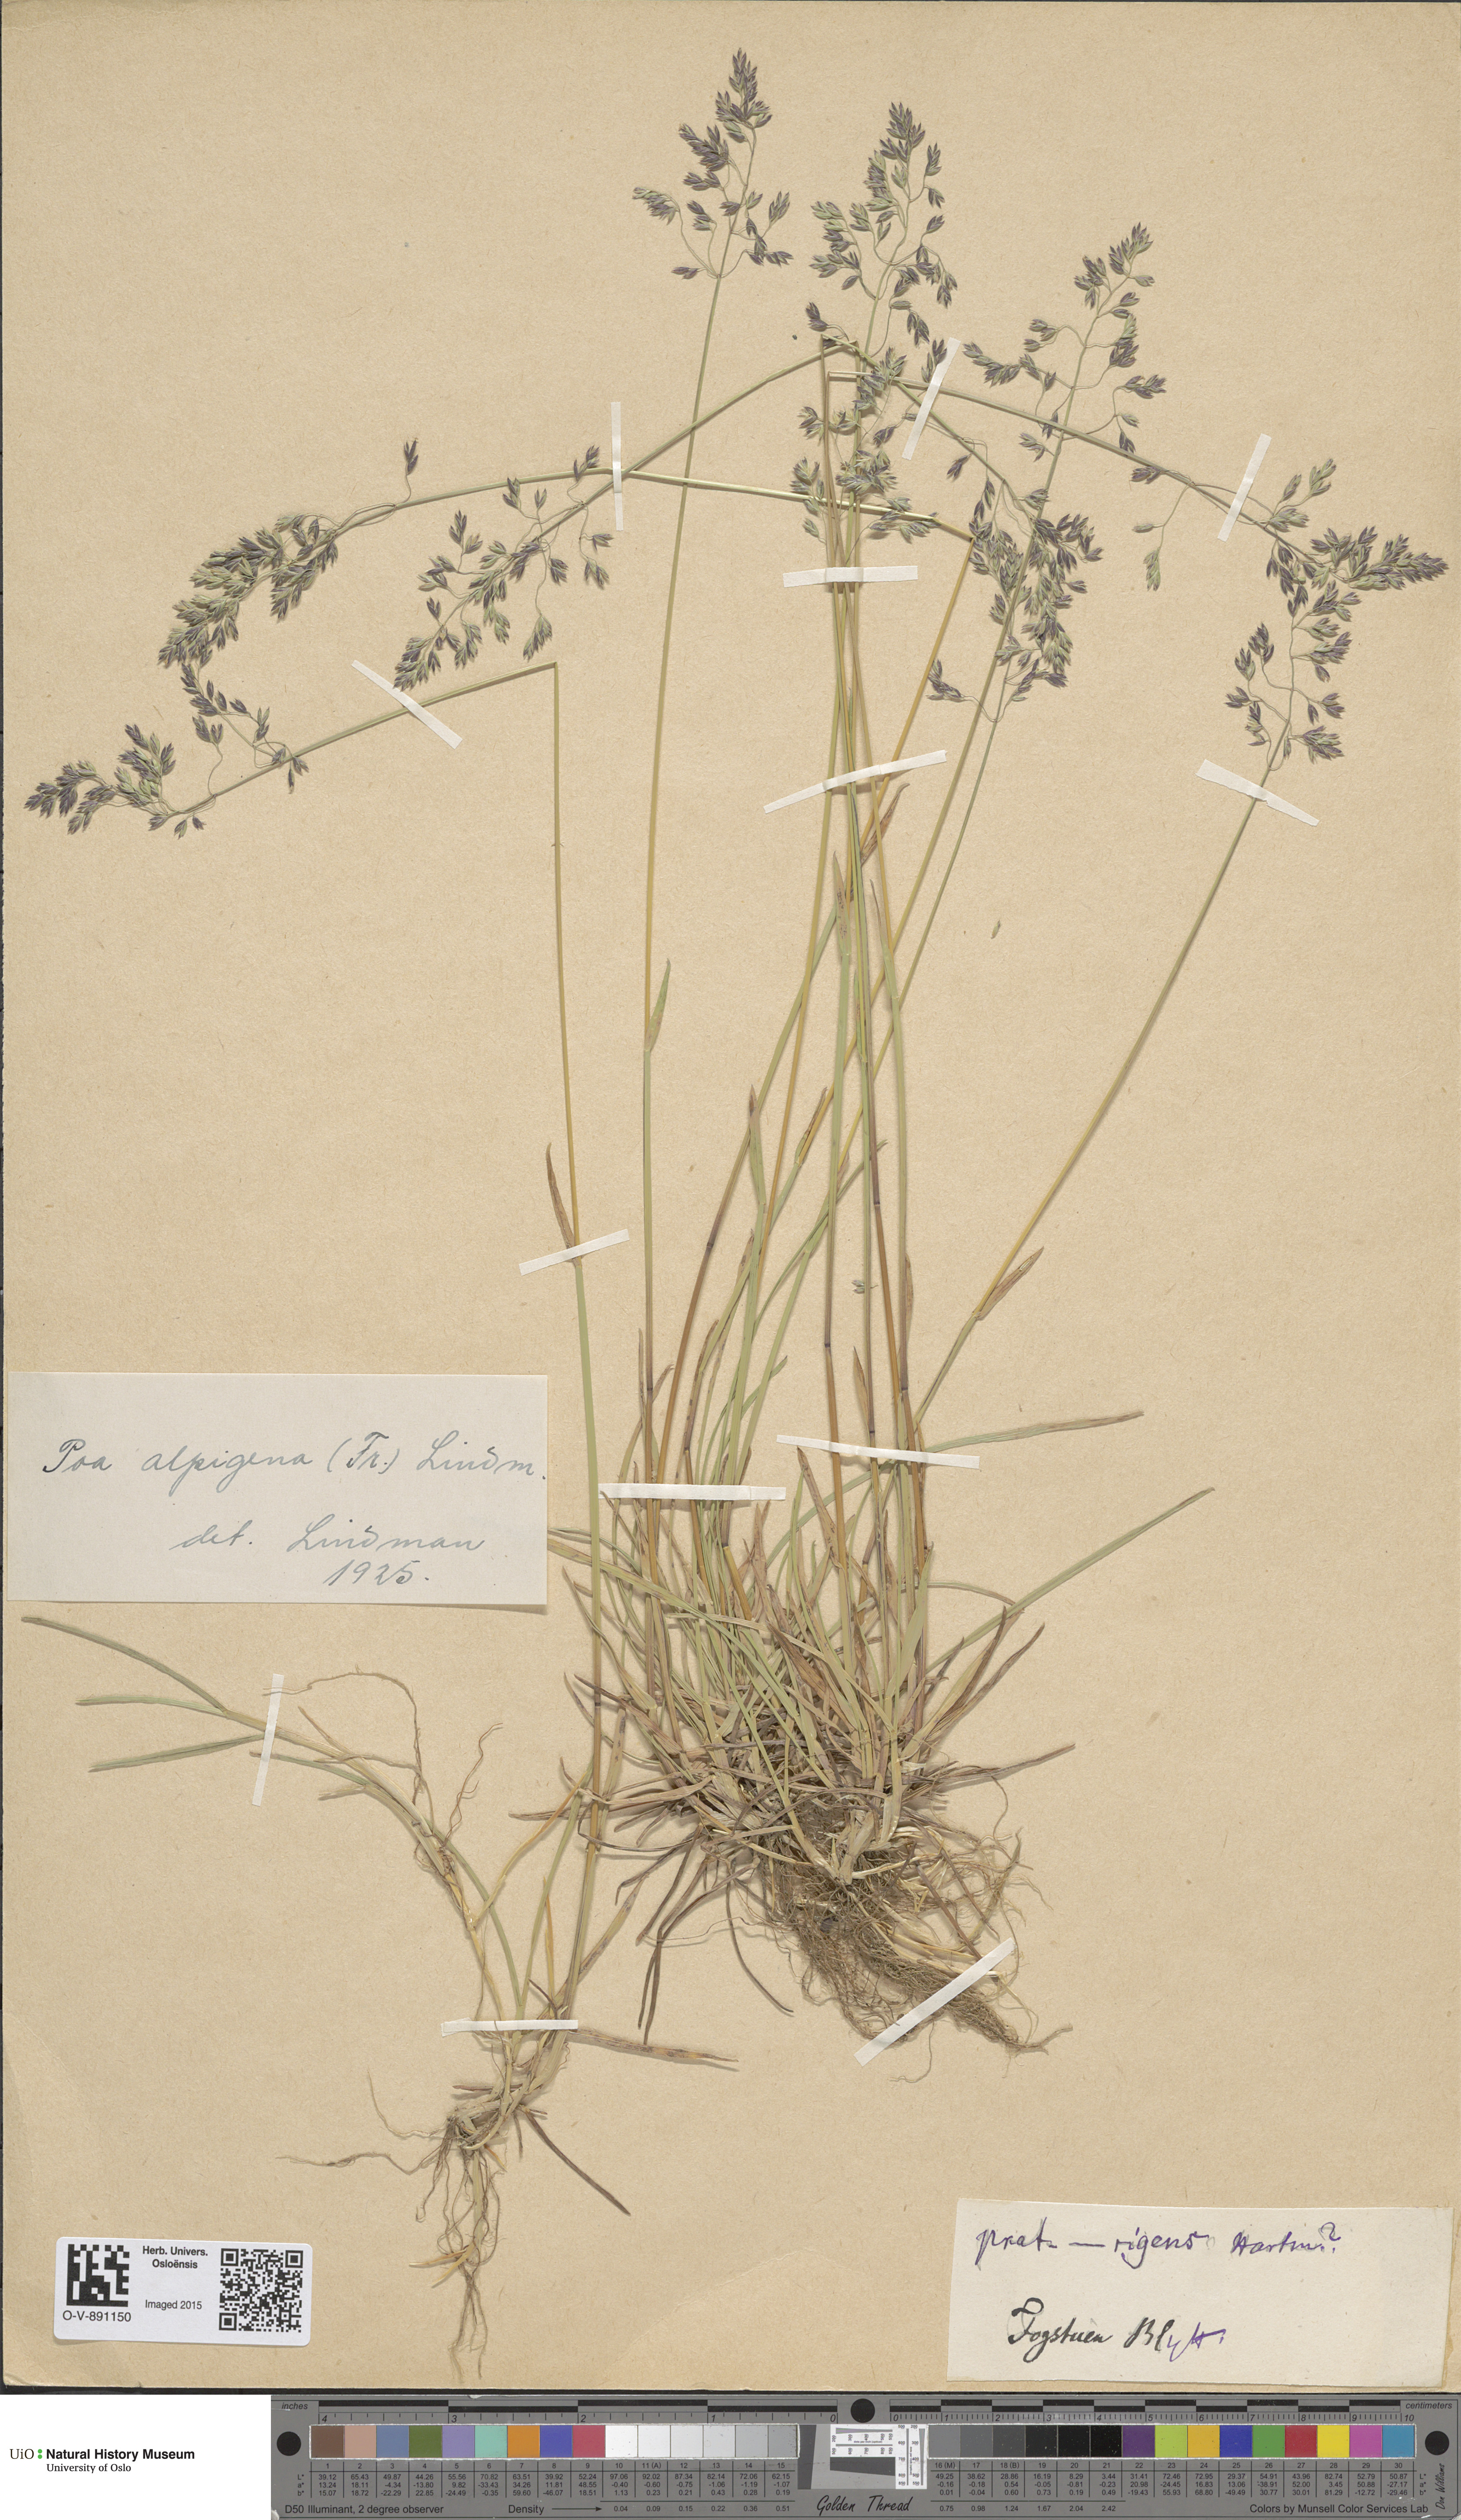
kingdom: Plantae
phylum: Tracheophyta
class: Liliopsida
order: Poales
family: Poaceae
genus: Poa
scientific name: Poa alpigena
